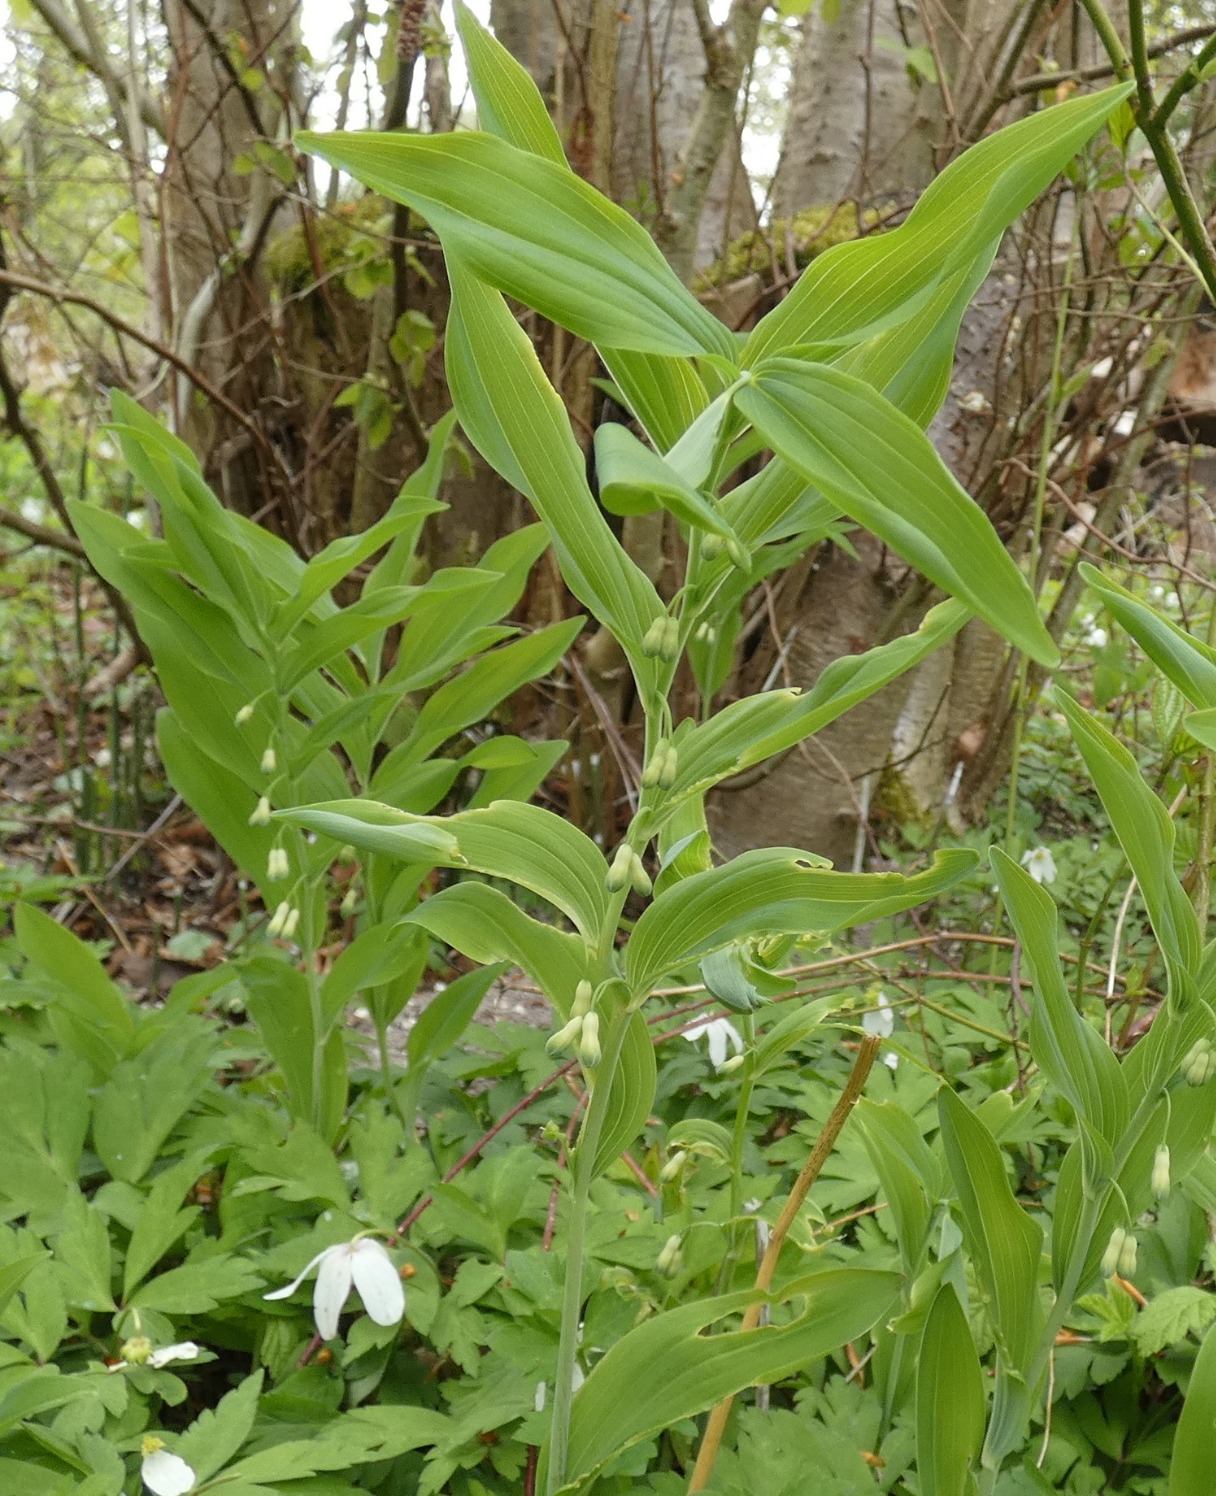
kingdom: Plantae
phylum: Tracheophyta
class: Liliopsida
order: Asparagales
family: Asparagaceae
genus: Polygonatum
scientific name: Polygonatum multiflorum
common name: Stor konval
